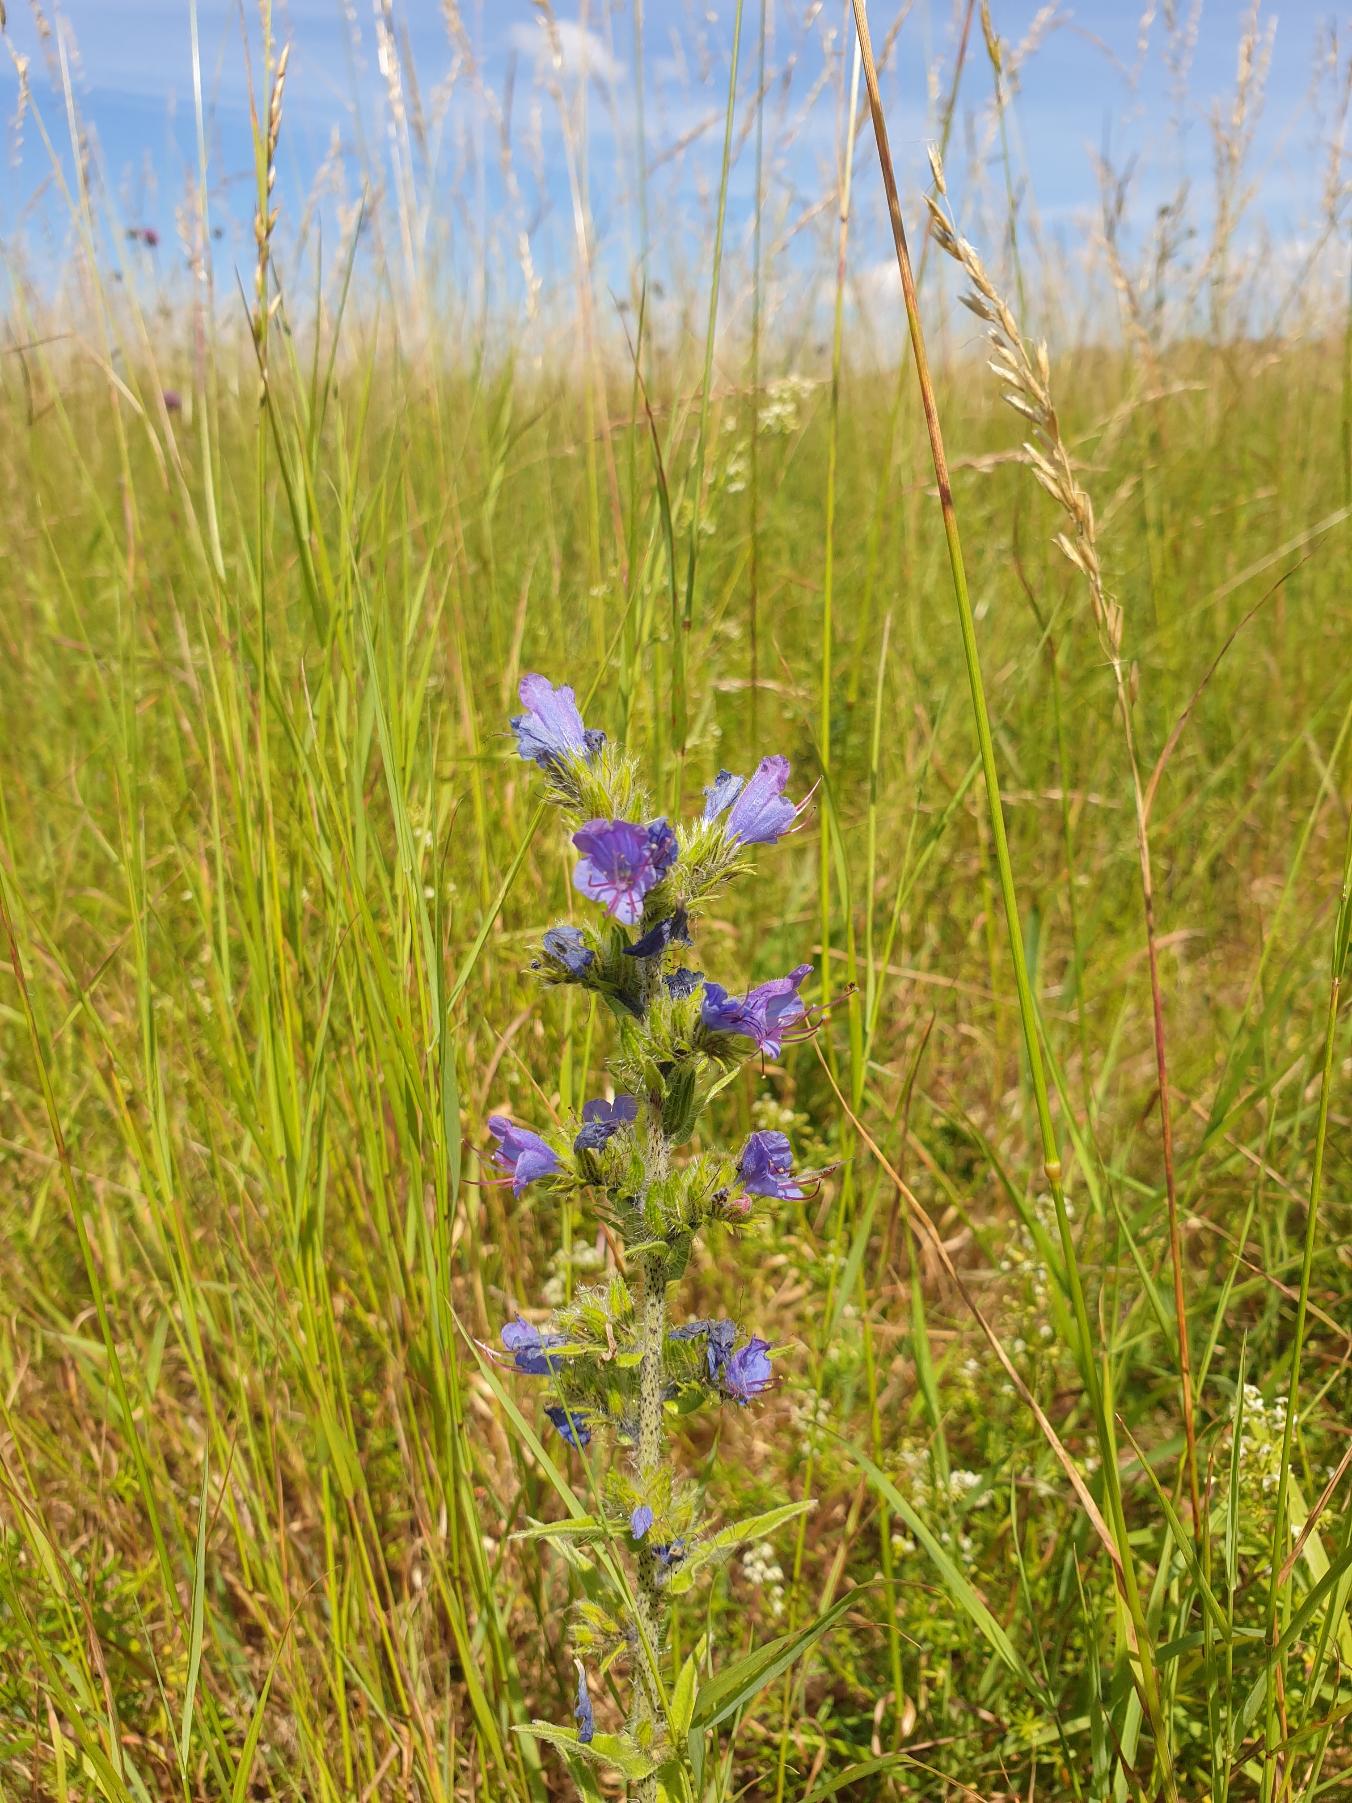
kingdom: Plantae
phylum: Tracheophyta
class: Magnoliopsida
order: Boraginales
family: Boraginaceae
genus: Echium
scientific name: Echium vulgare
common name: Slangehoved
